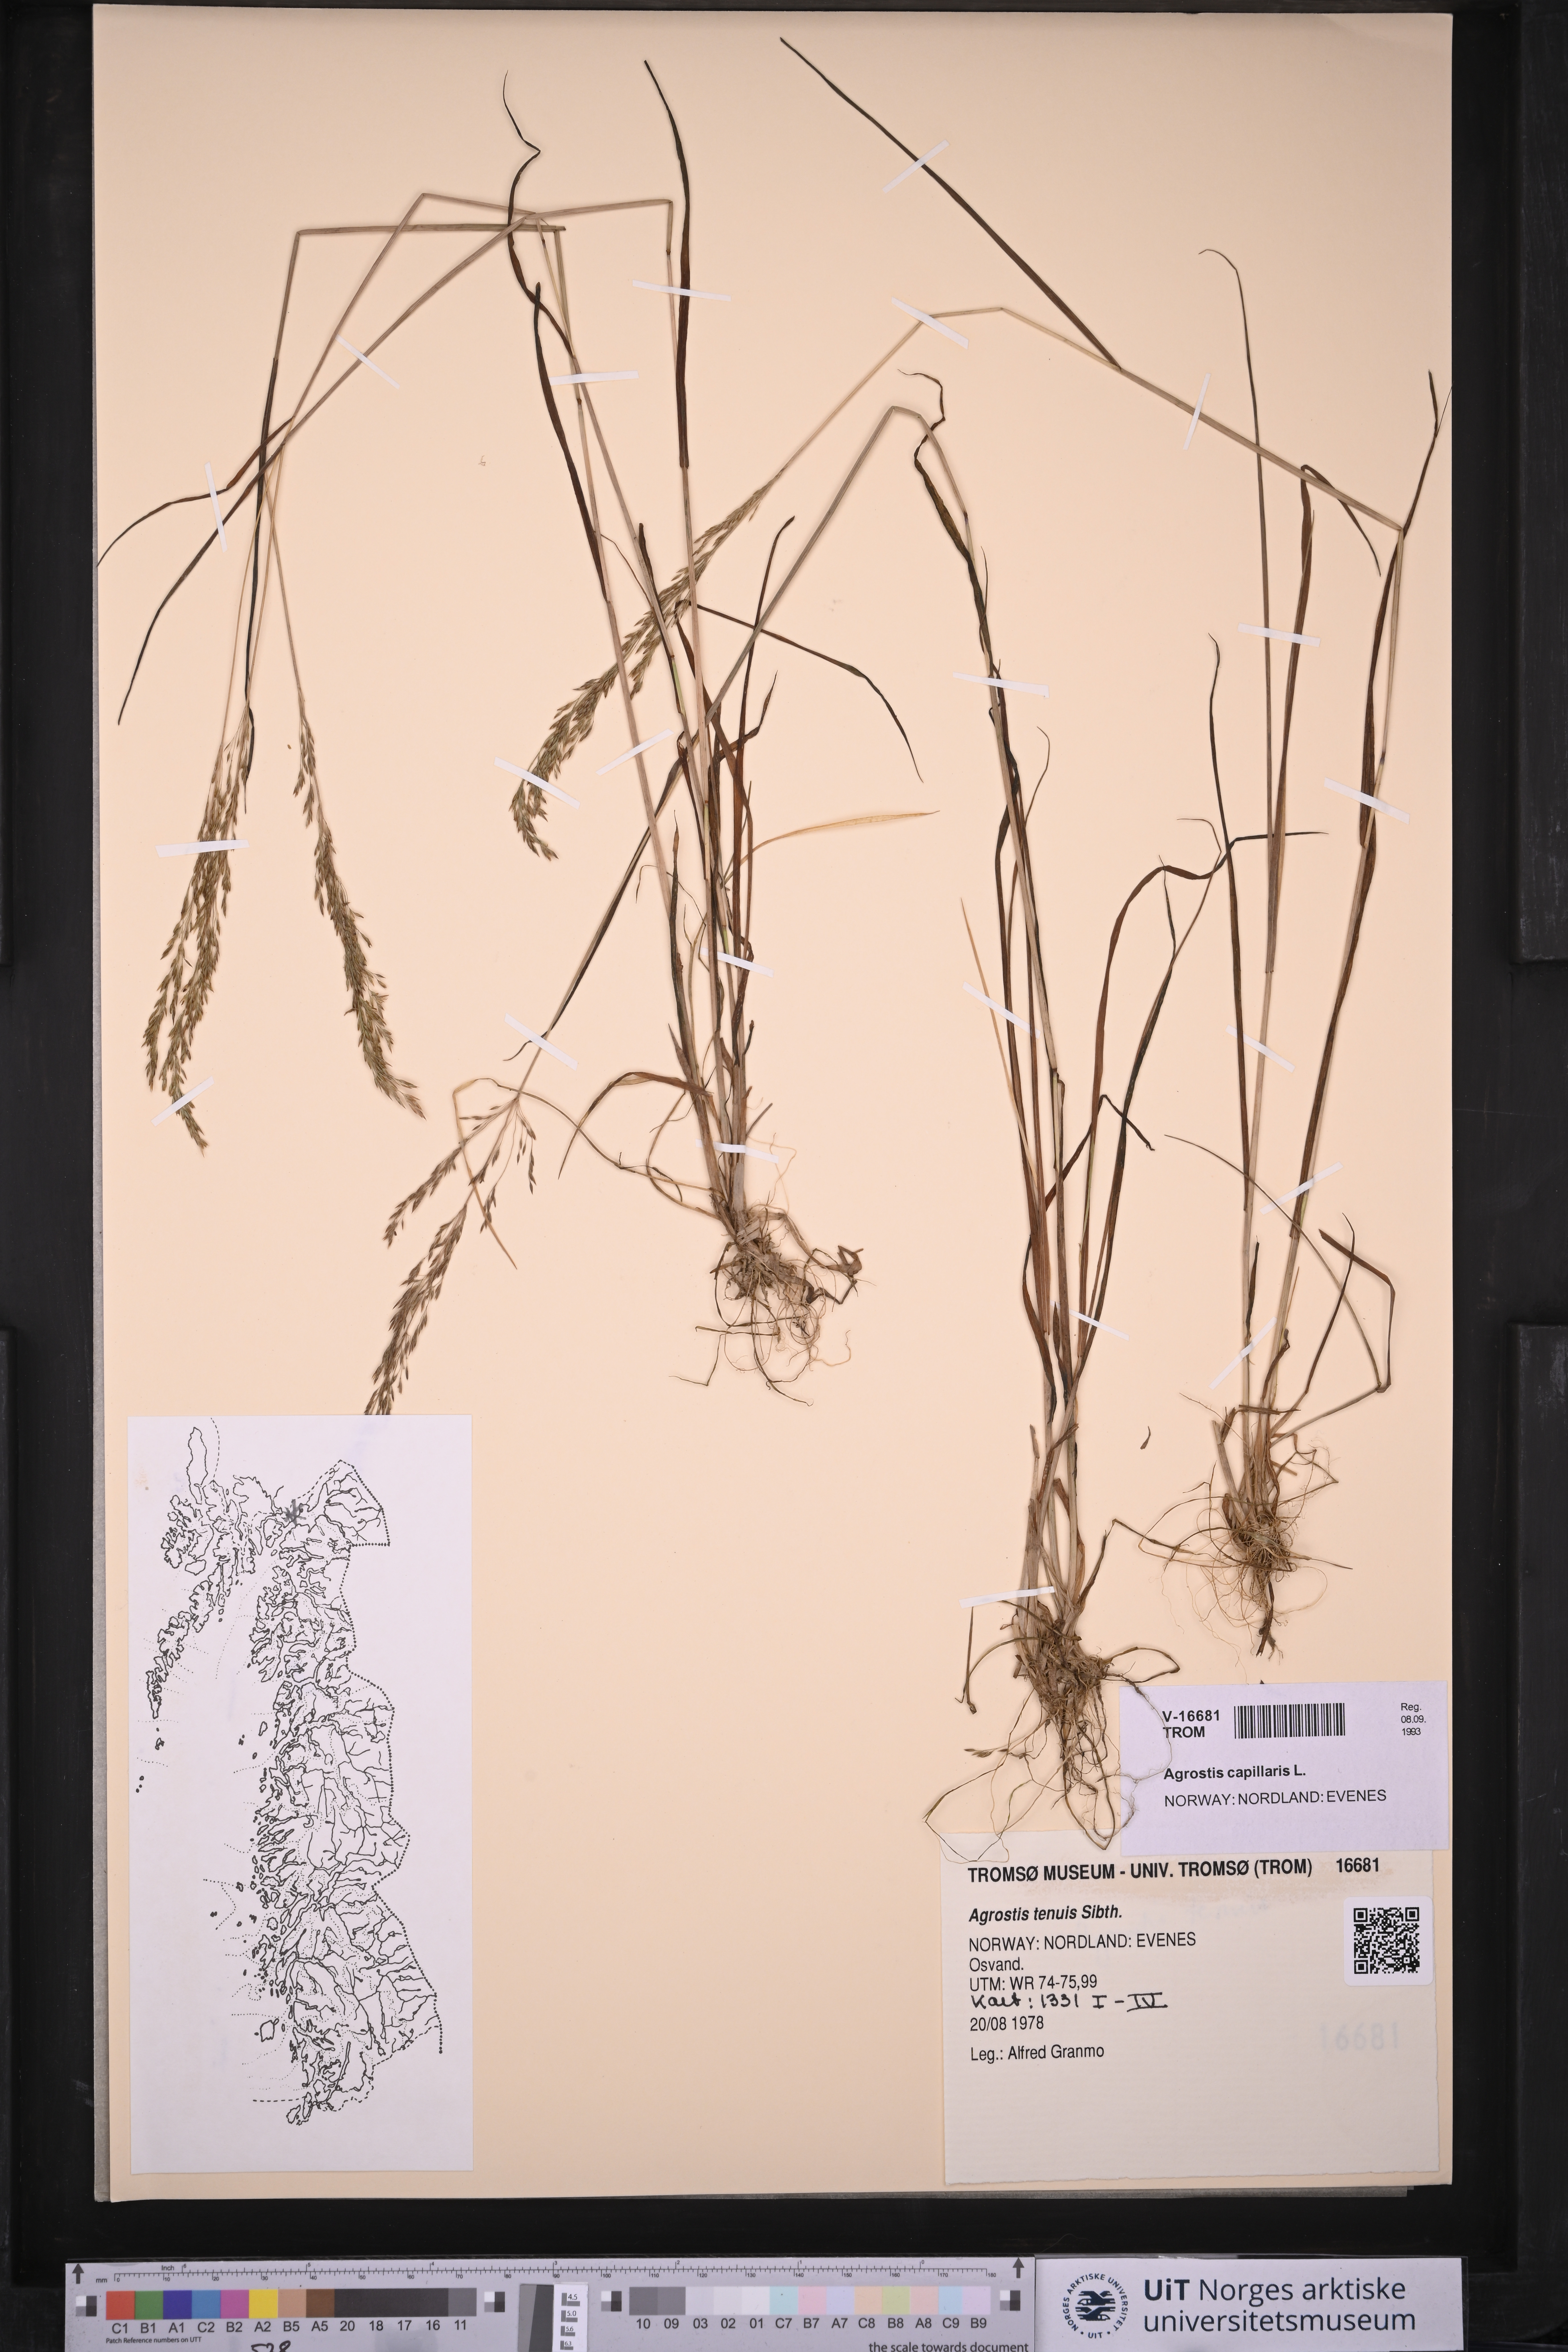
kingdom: Plantae
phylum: Tracheophyta
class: Liliopsida
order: Poales
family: Poaceae
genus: Agrostis
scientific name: Agrostis capillaris
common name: Colonial bentgrass
